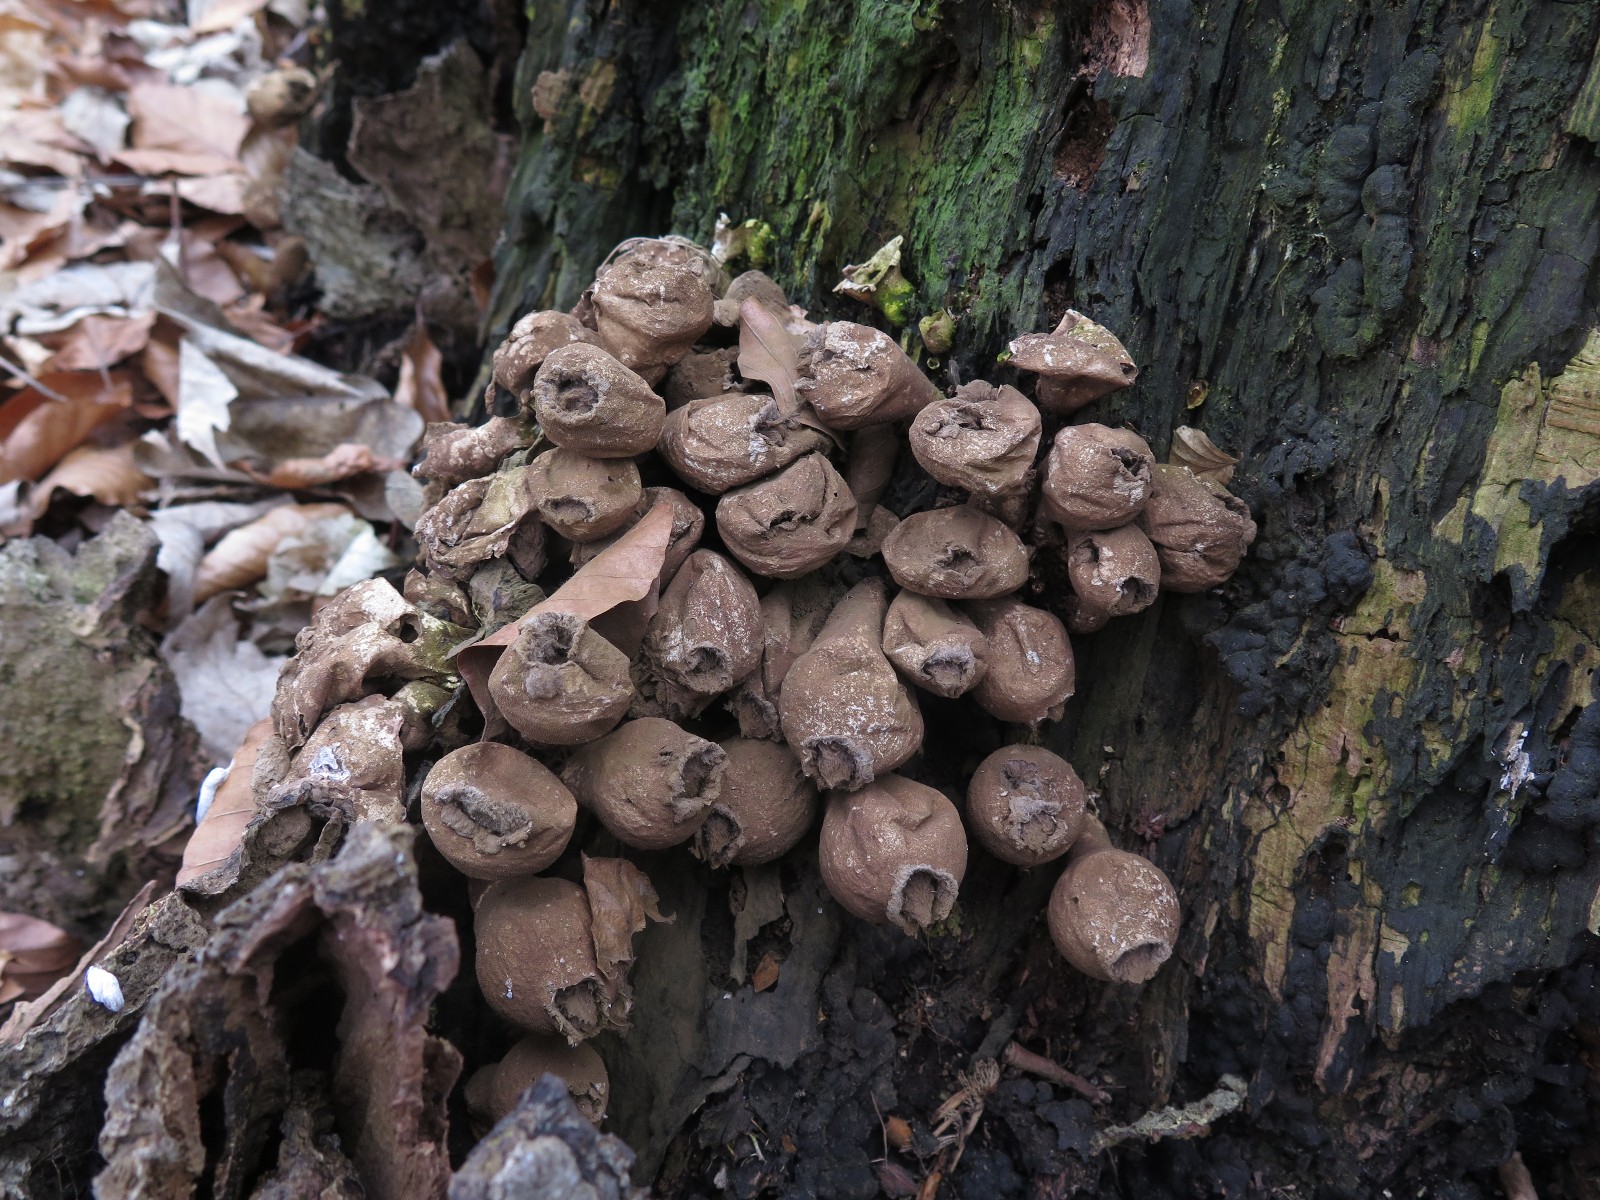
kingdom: Fungi
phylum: Basidiomycota
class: Agaricomycetes
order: Agaricales
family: Lycoperdaceae
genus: Apioperdon
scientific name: Apioperdon pyriforme
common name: pære-støvbold
